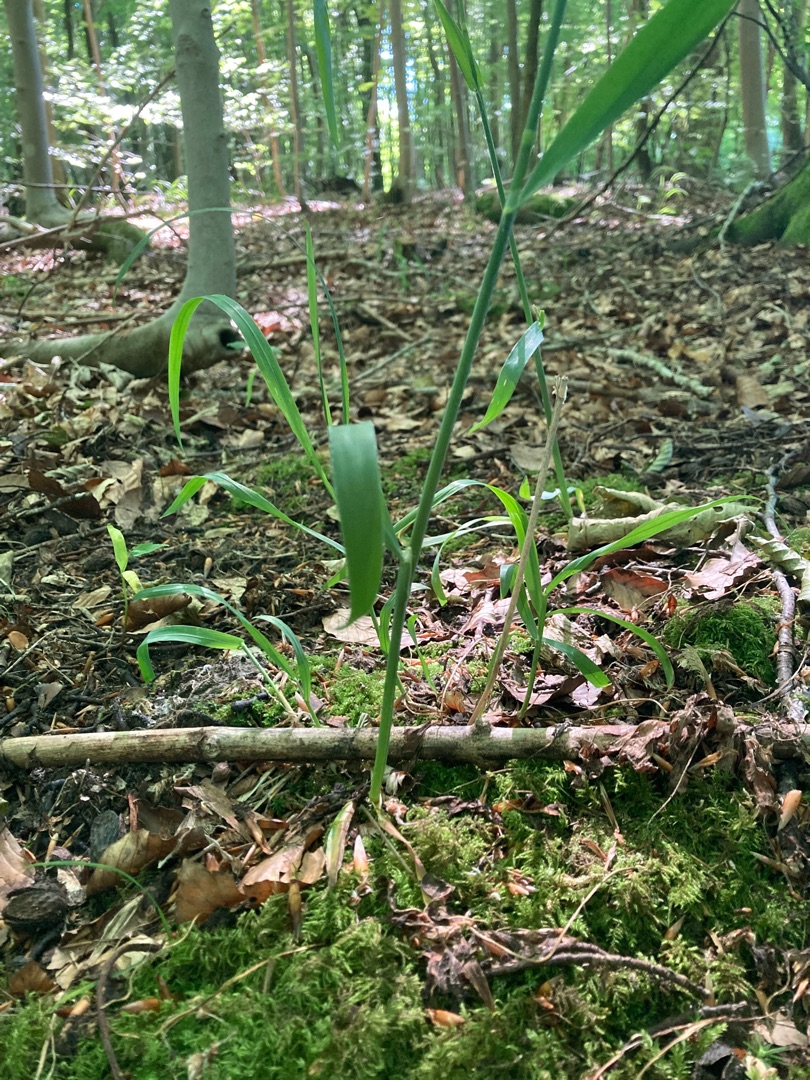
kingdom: Plantae
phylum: Tracheophyta
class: Liliopsida
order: Poales
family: Poaceae
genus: Milium
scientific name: Milium effusum
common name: Miliegræs
